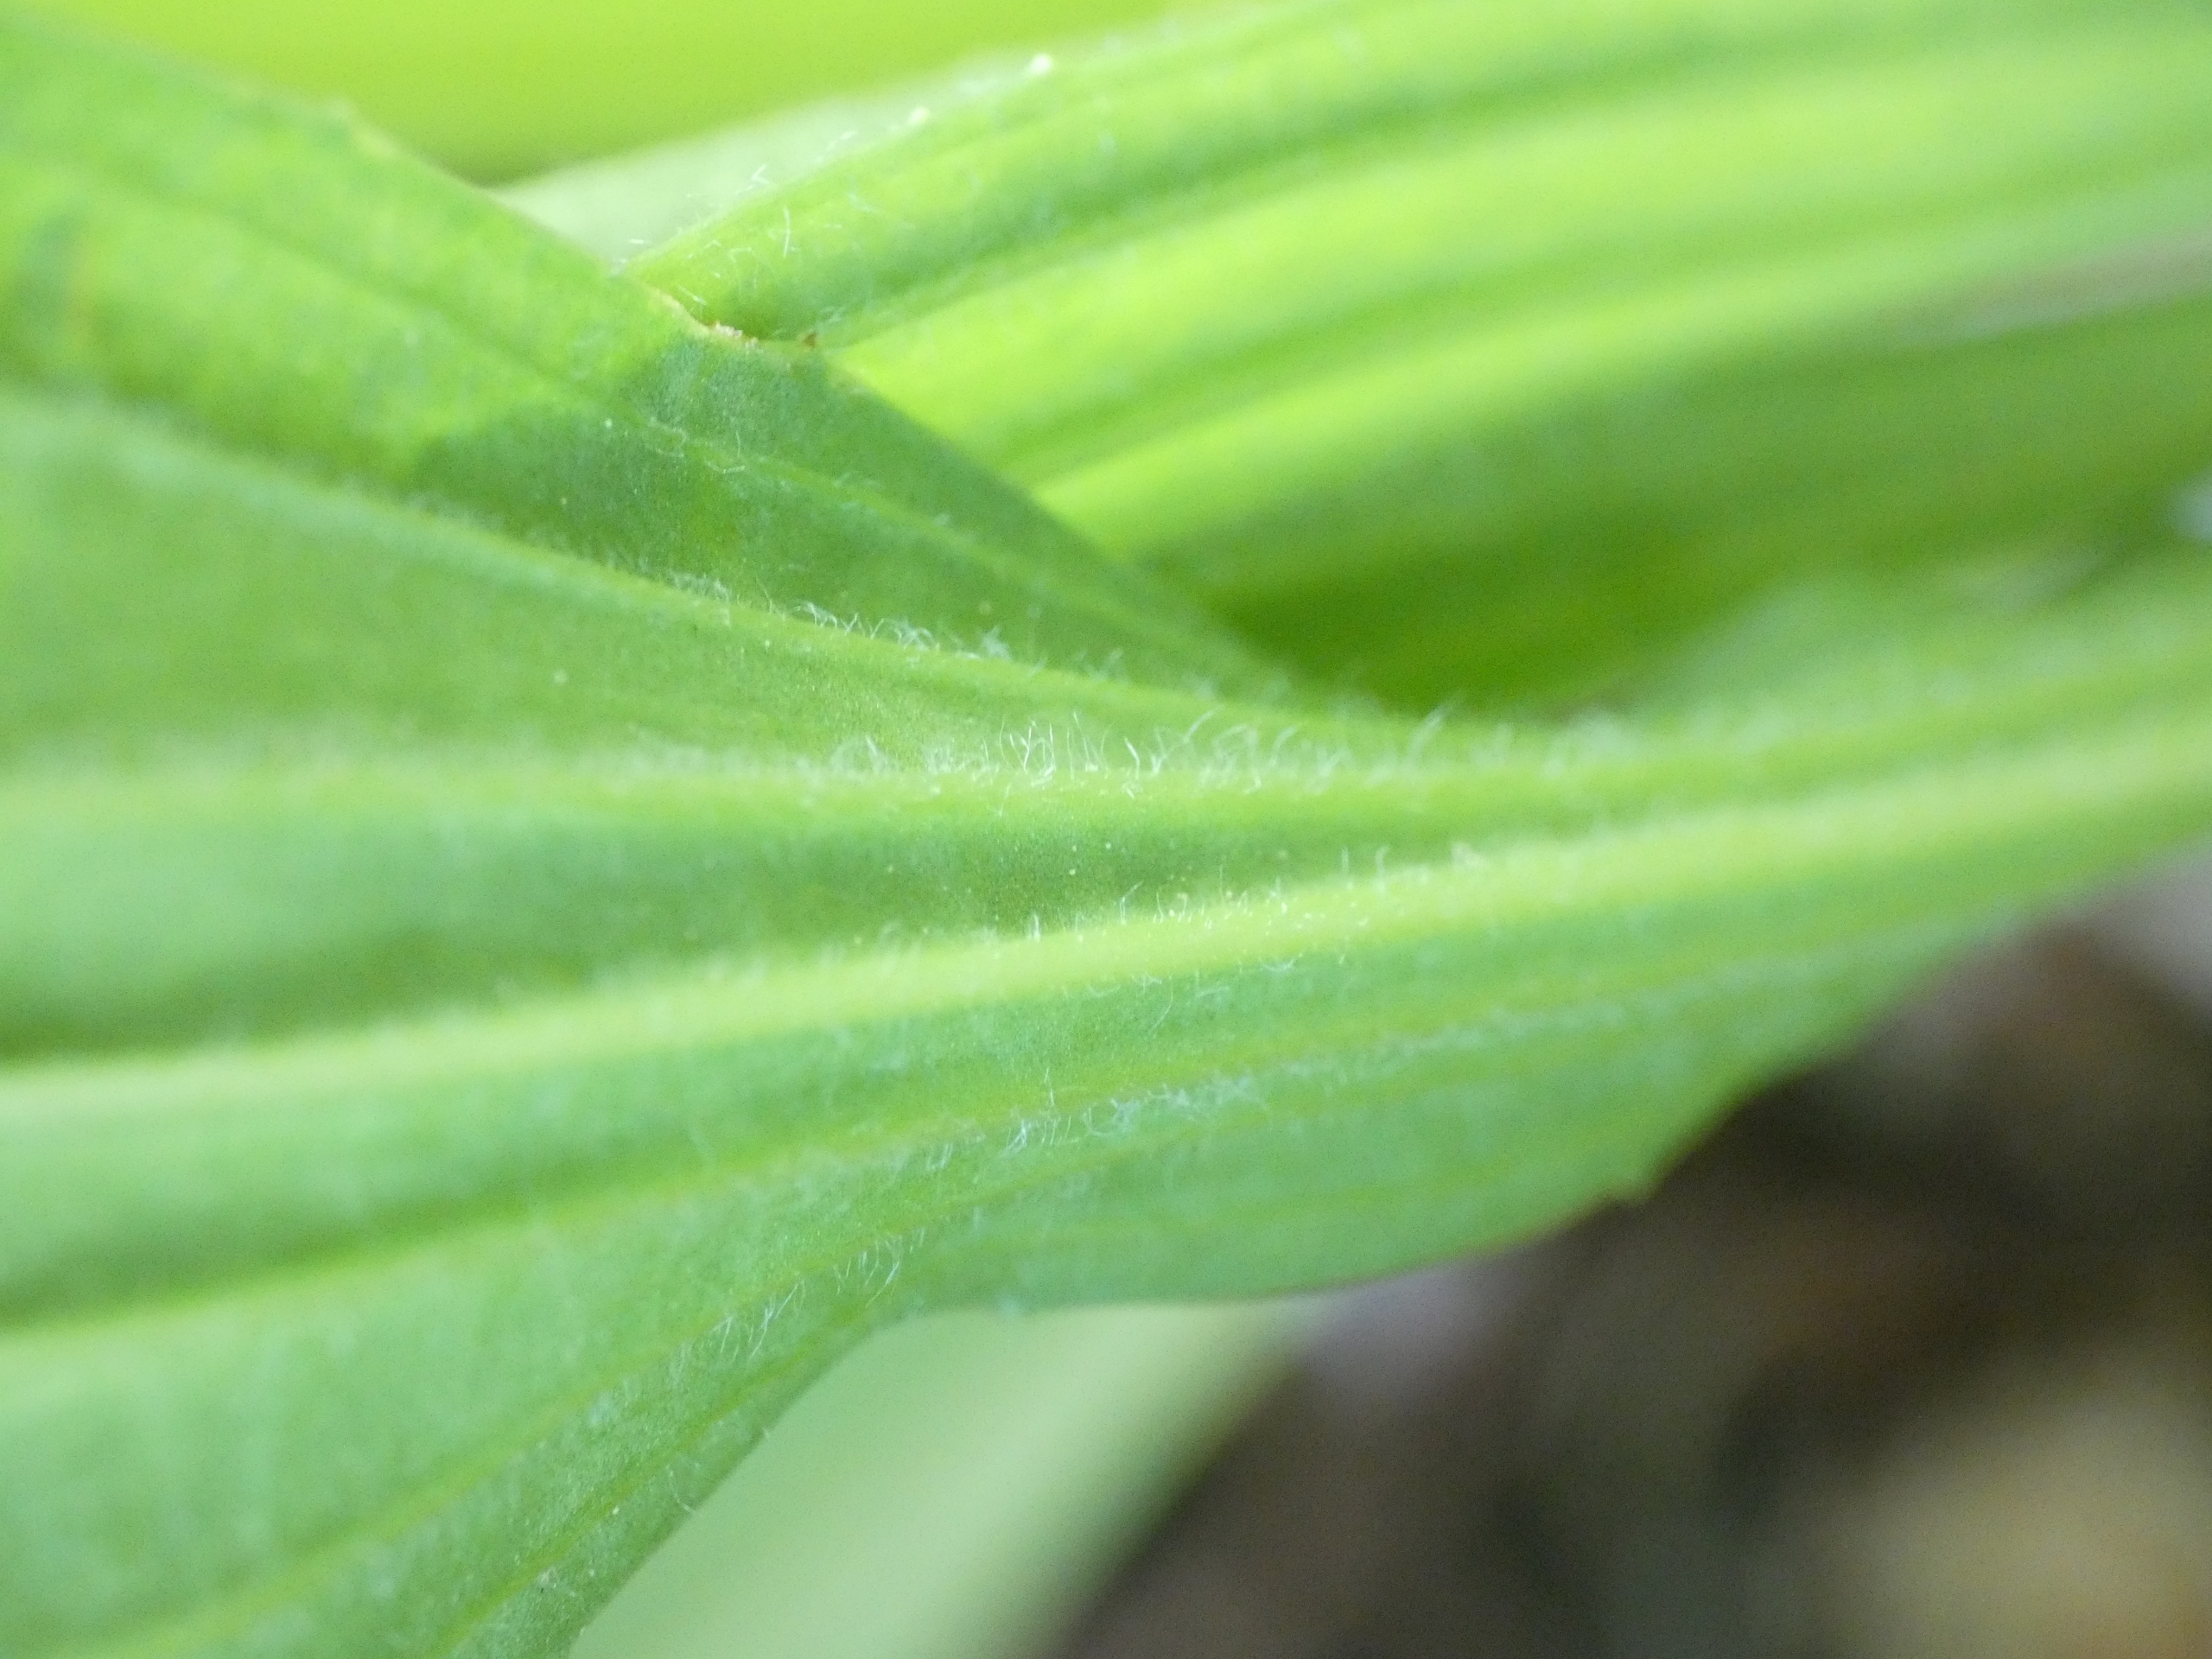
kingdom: Plantae
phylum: Tracheophyta
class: Magnoliopsida
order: Lamiales
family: Plantaginaceae
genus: Plantago
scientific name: Plantago lanceolata
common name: Lancet-vejbred
